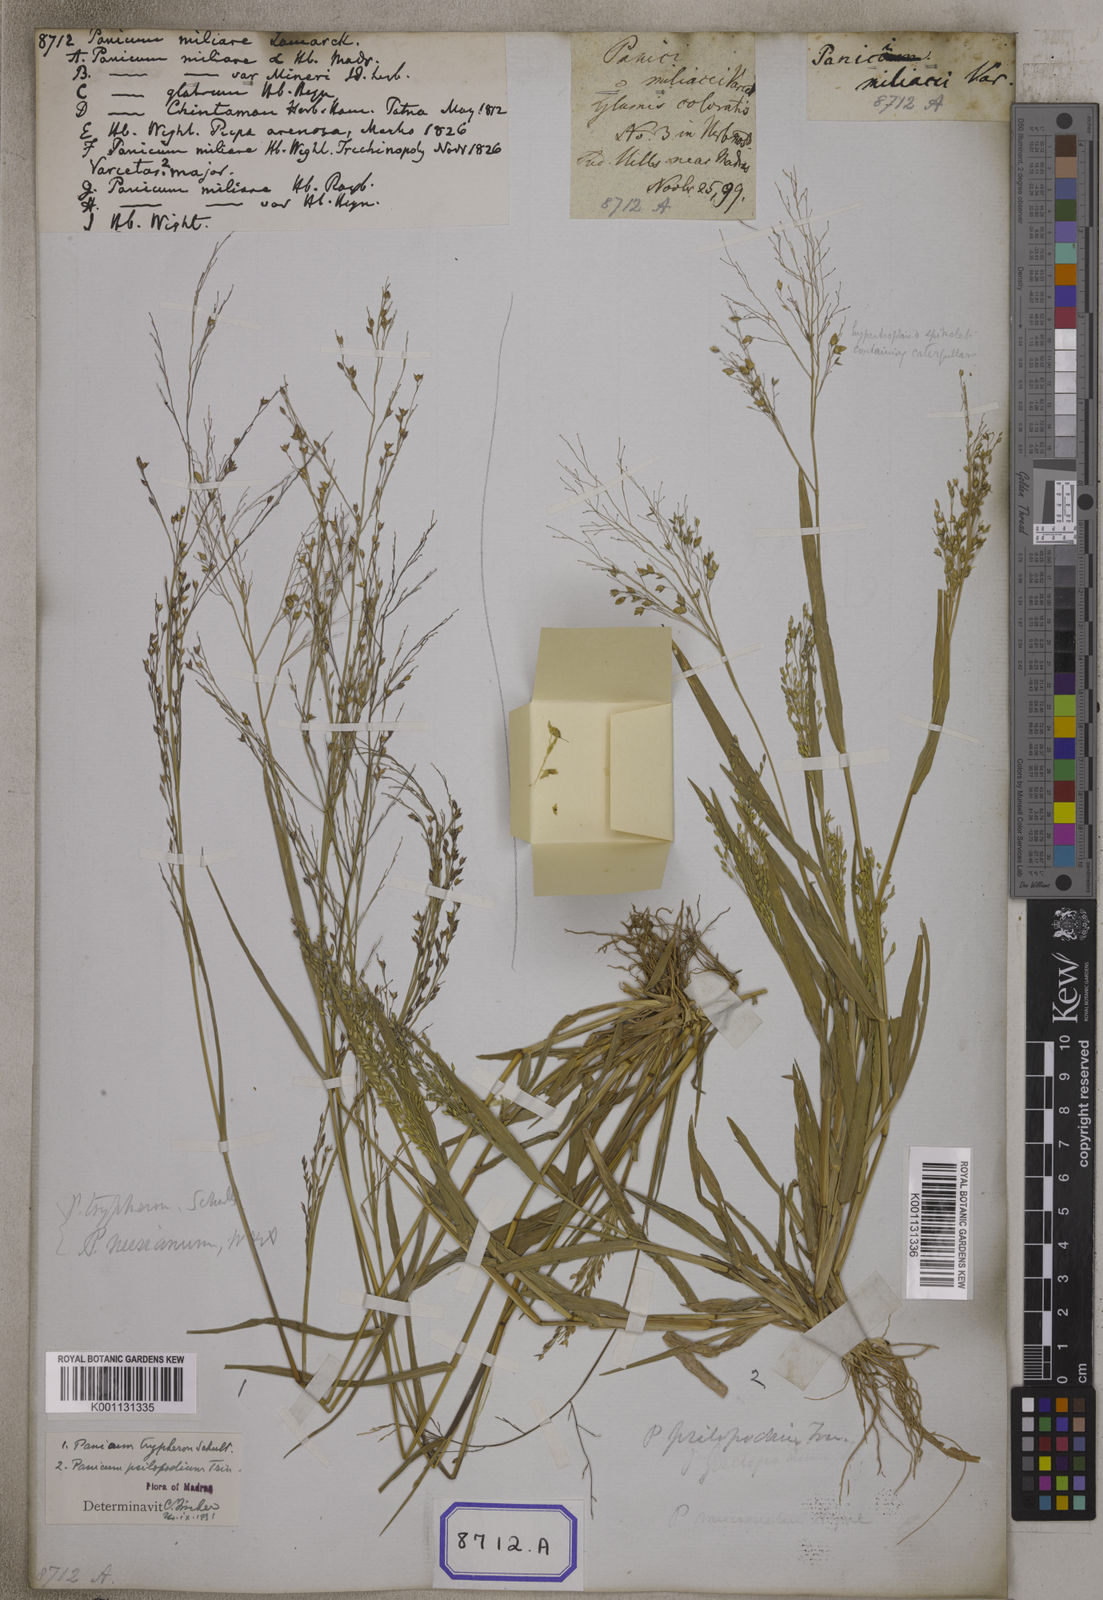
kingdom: Plantae
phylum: Tracheophyta
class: Liliopsida
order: Poales
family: Poaceae
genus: Panicum
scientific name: Panicum antidotale
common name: Blue panicum
